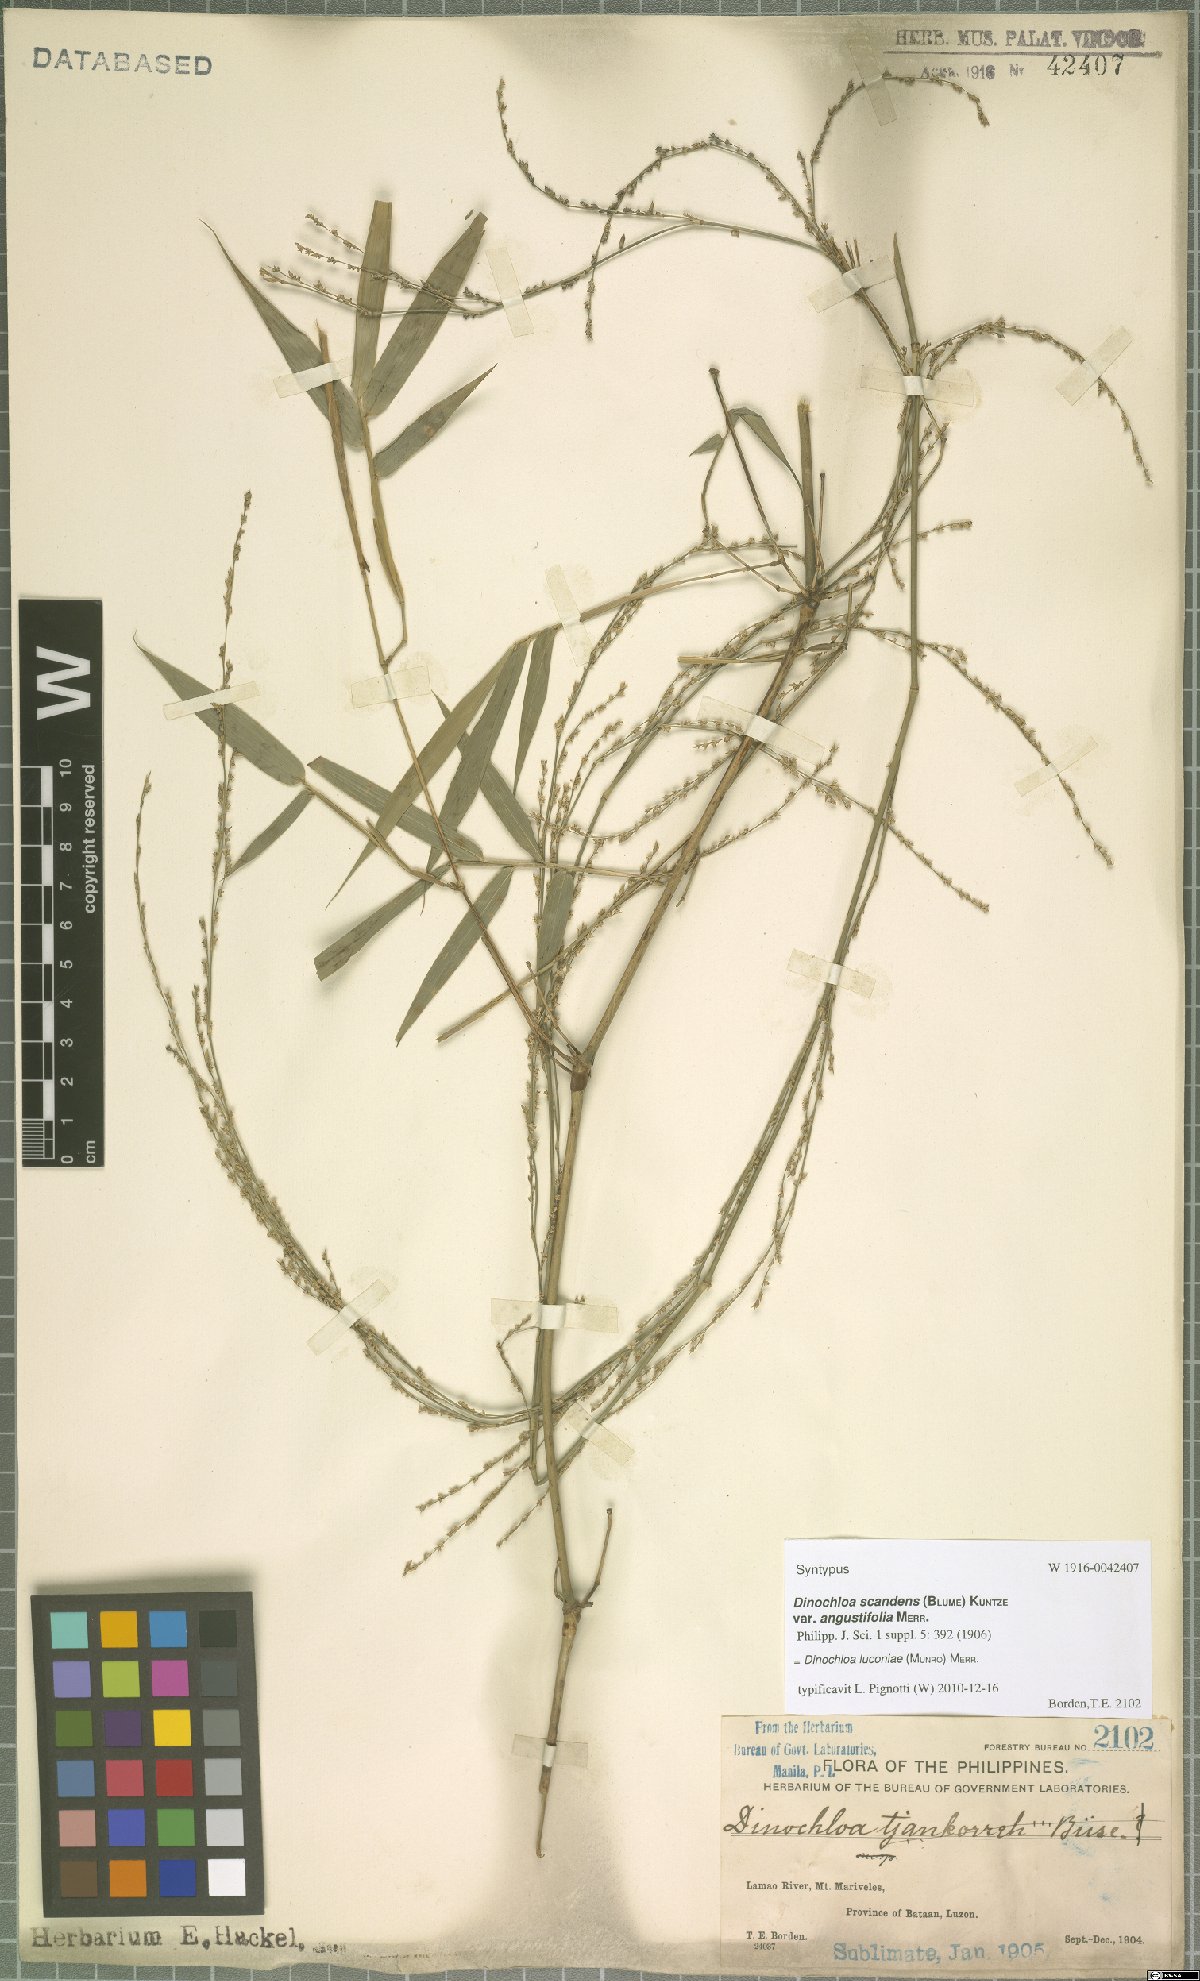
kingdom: Plantae
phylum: Tracheophyta
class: Liliopsida
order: Poales
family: Poaceae
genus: Dinochloa
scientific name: Dinochloa luconiae
